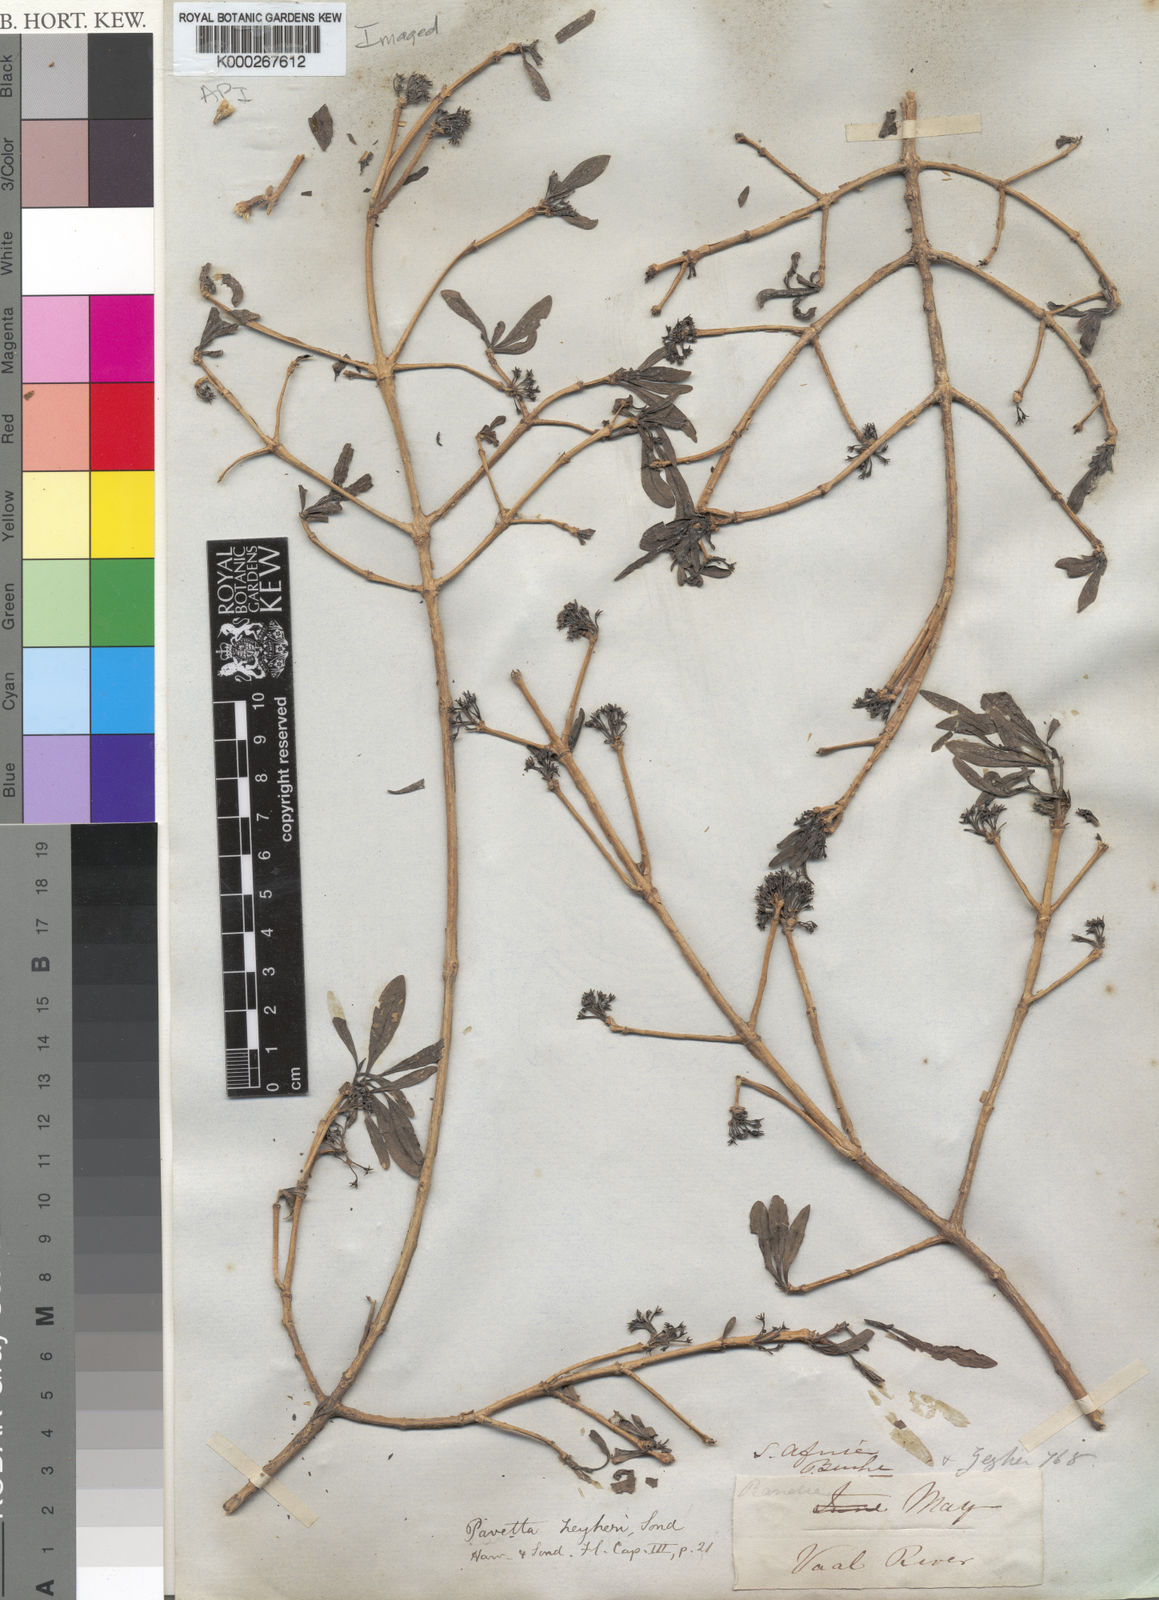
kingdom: Plantae
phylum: Tracheophyta
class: Magnoliopsida
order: Gentianales
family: Rubiaceae
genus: Pavetta
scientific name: Pavetta zeyheri
